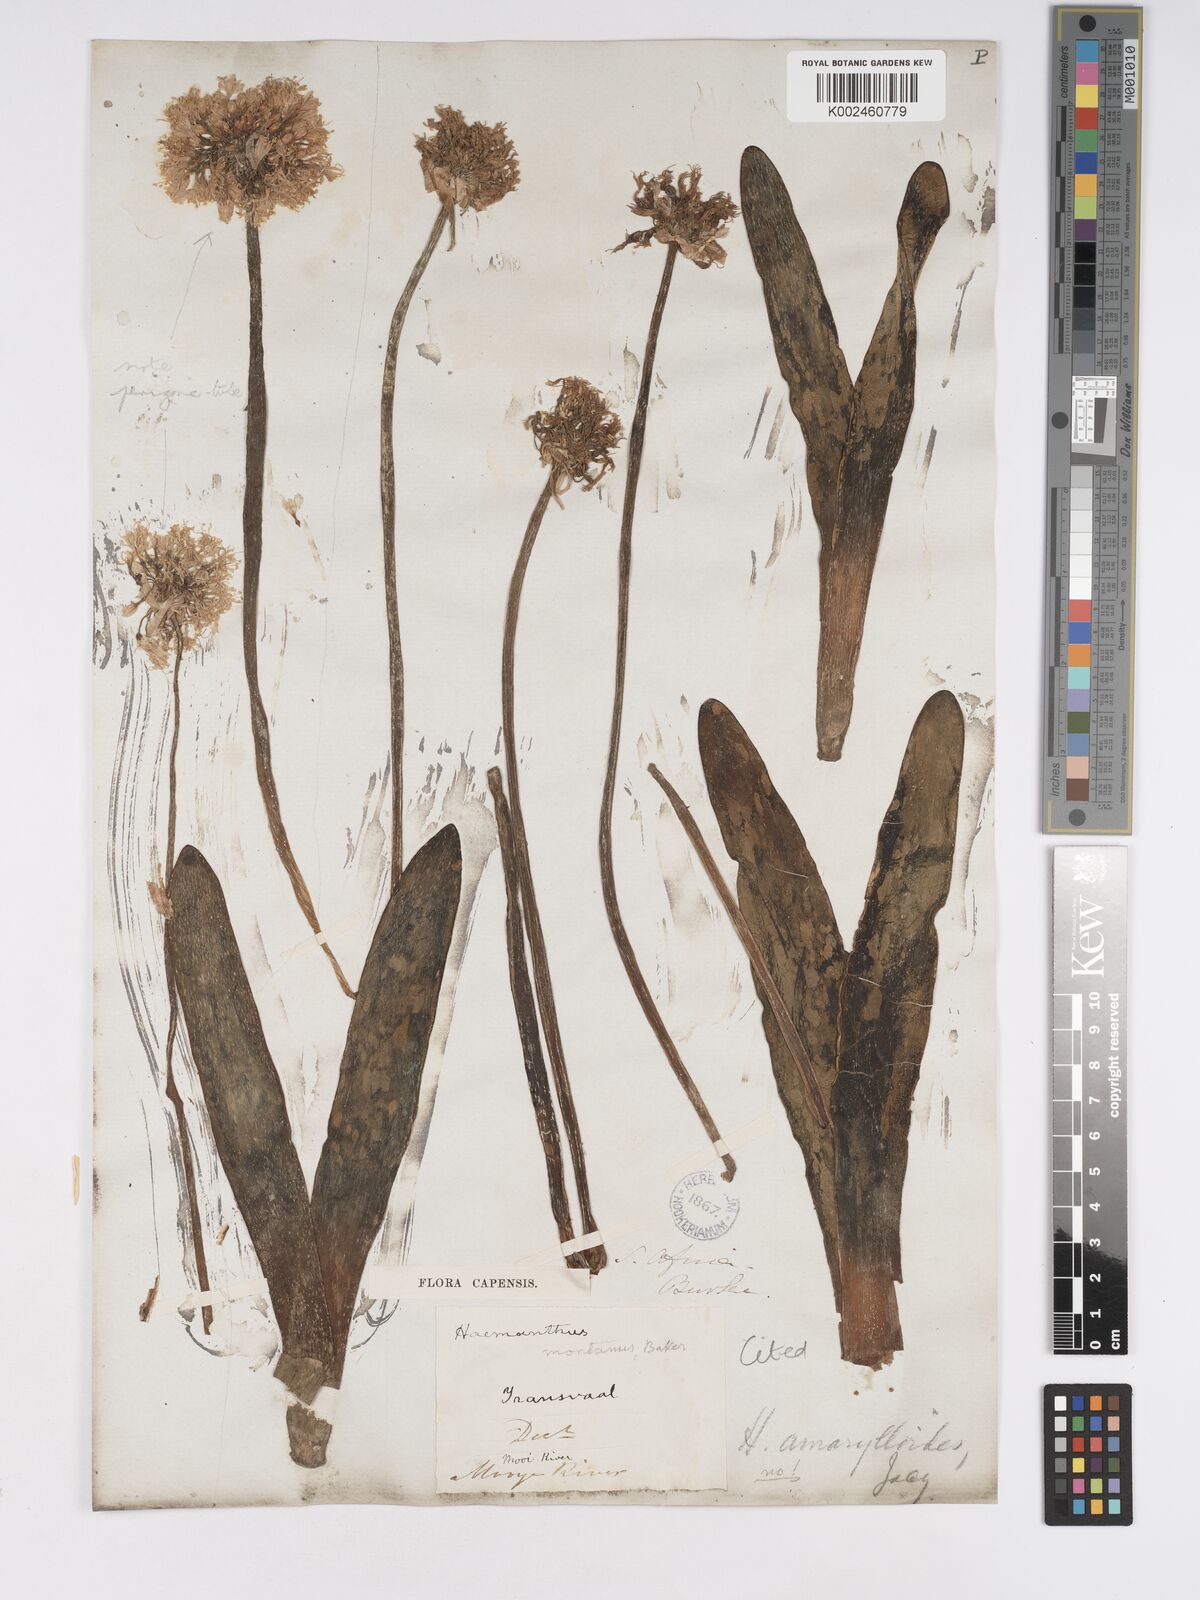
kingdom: Plantae
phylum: Tracheophyta
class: Liliopsida
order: Asparagales
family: Amaryllidaceae
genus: Haemanthus
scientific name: Haemanthus montanus
